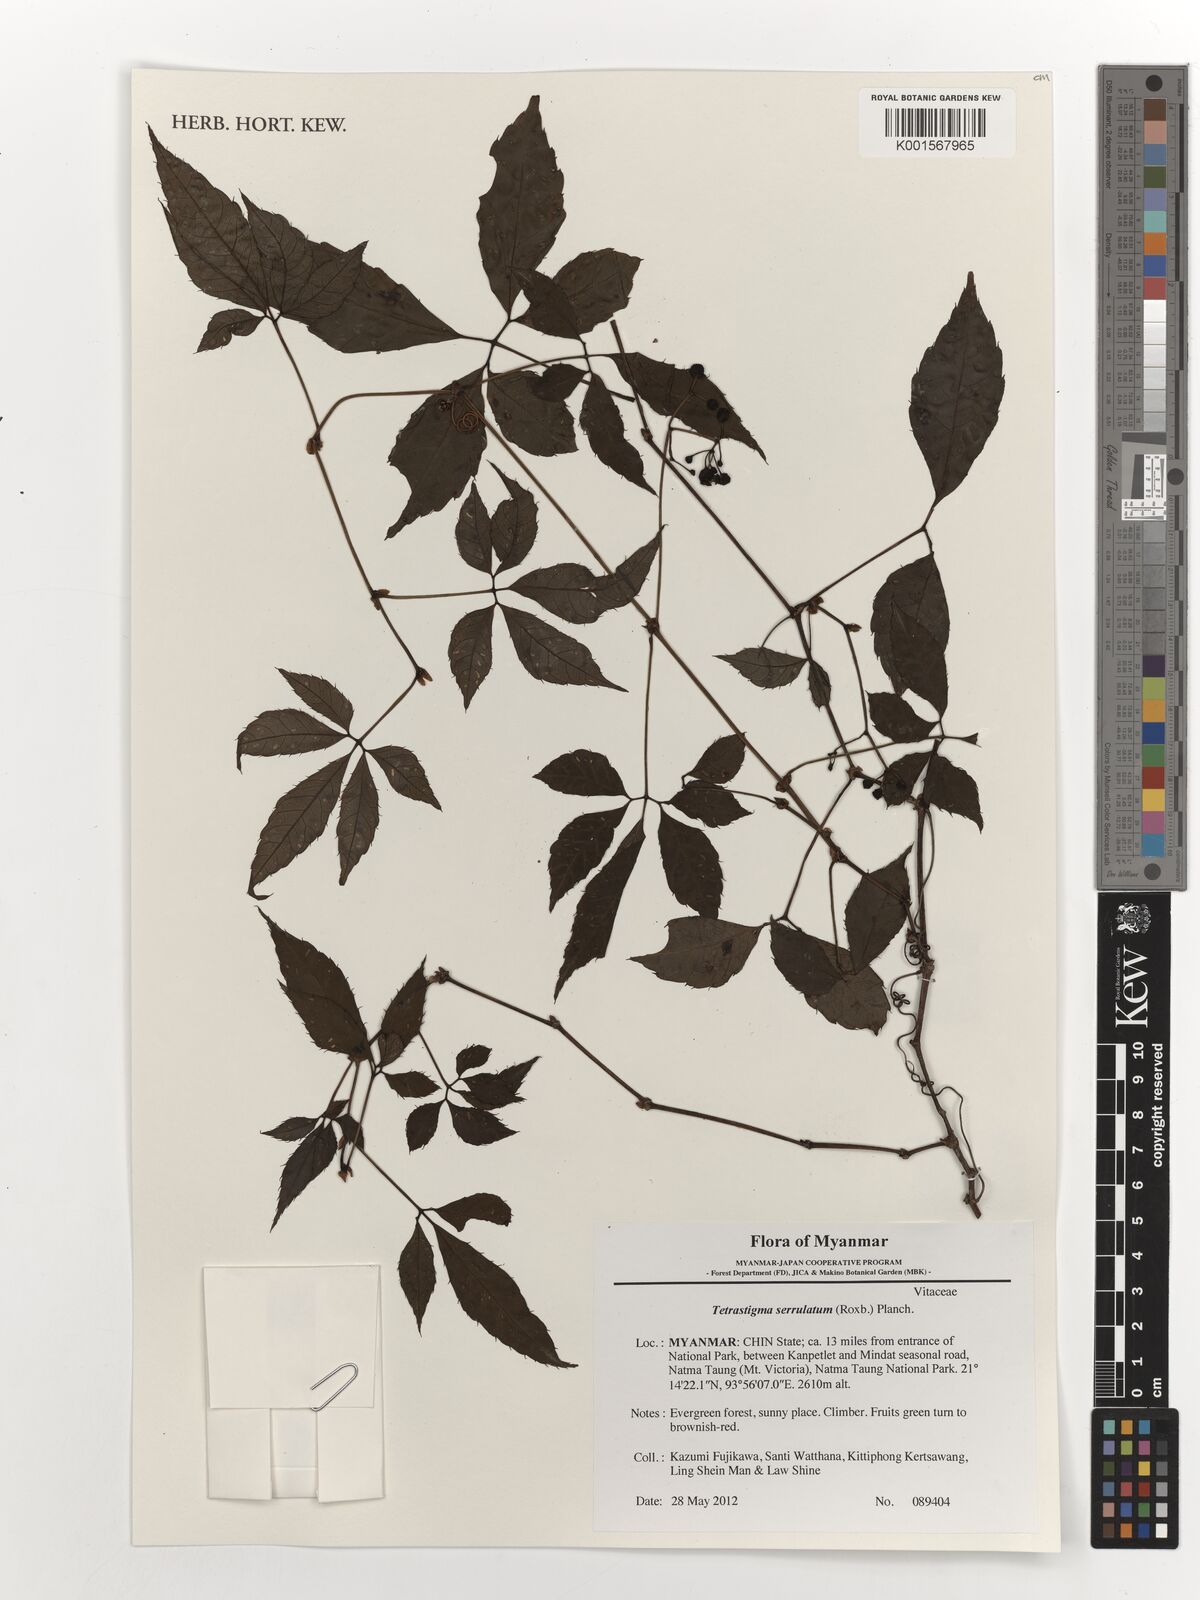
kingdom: Plantae
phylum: Tracheophyta
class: Magnoliopsida
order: Vitales
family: Vitaceae
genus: Tetrastigma
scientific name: Tetrastigma serrulatum
